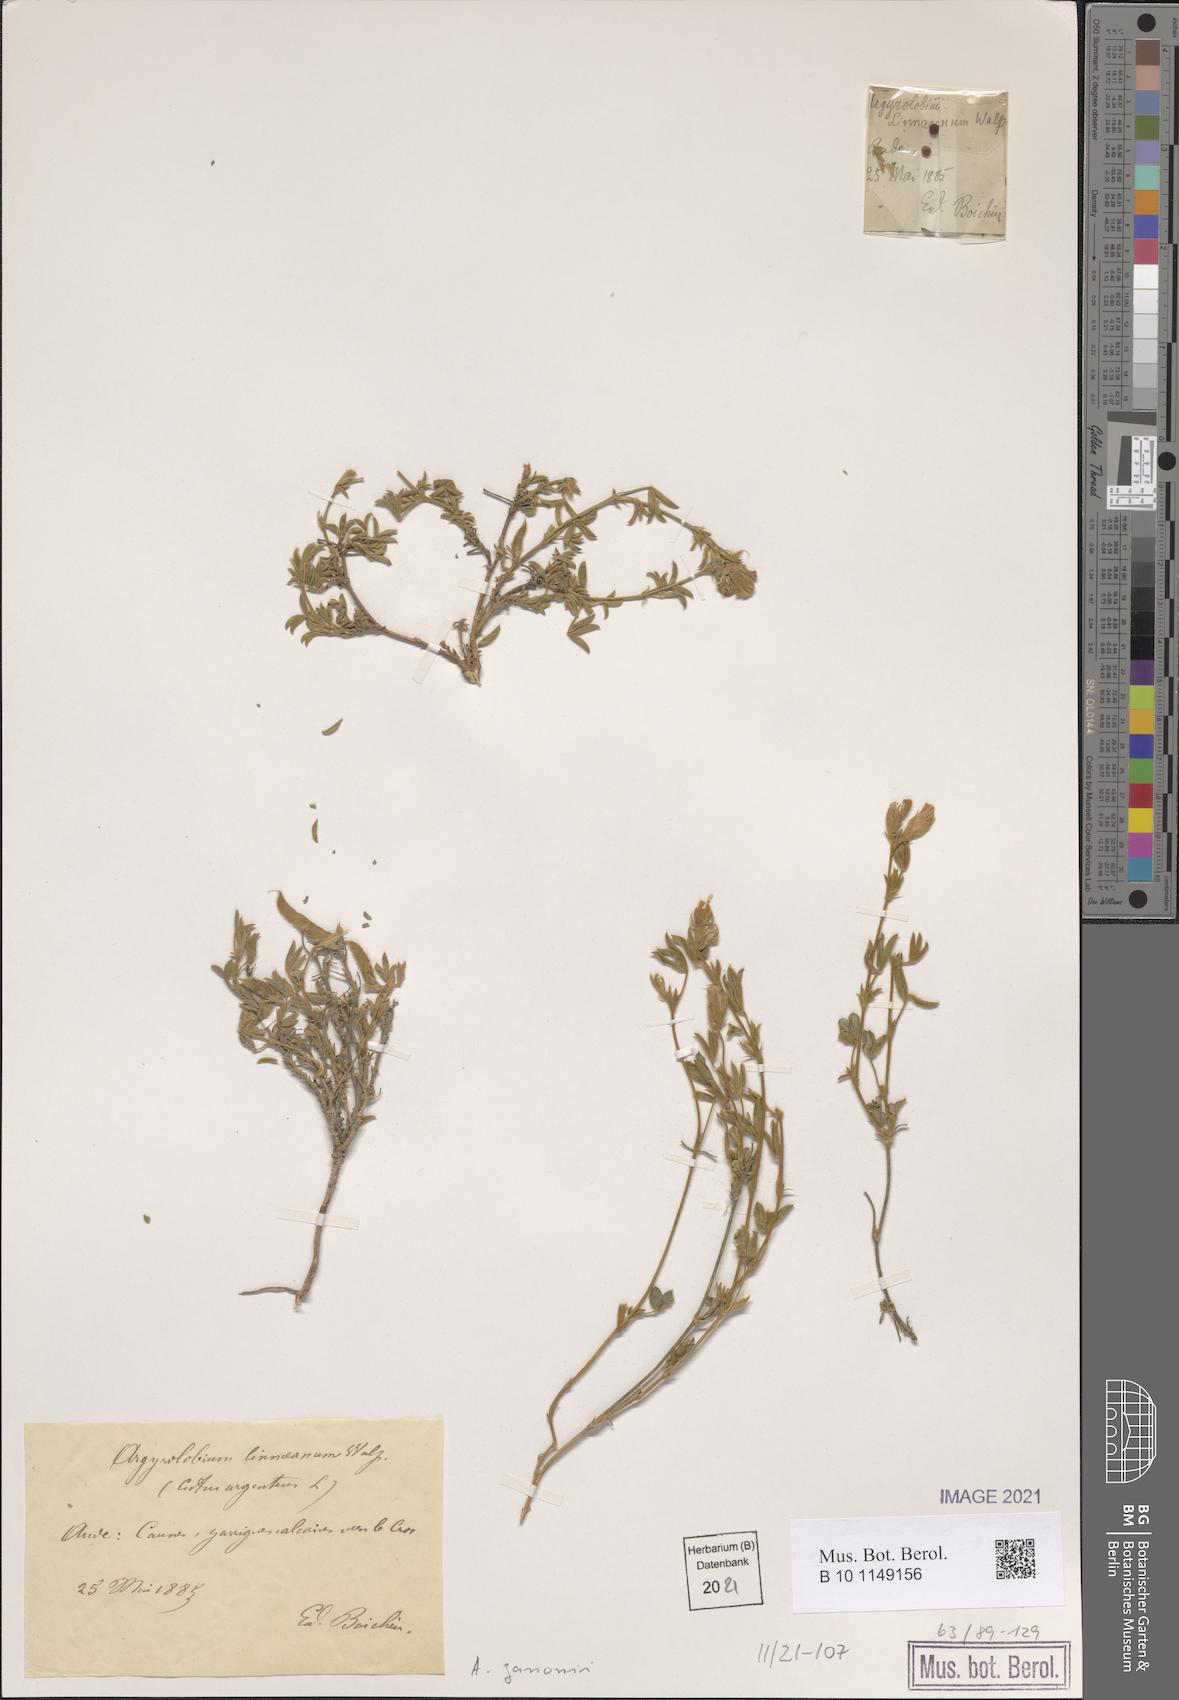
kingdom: Plantae
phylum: Tracheophyta
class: Magnoliopsida
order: Fabales
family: Fabaceae
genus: Argyrolobium
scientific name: Argyrolobium zanonii
